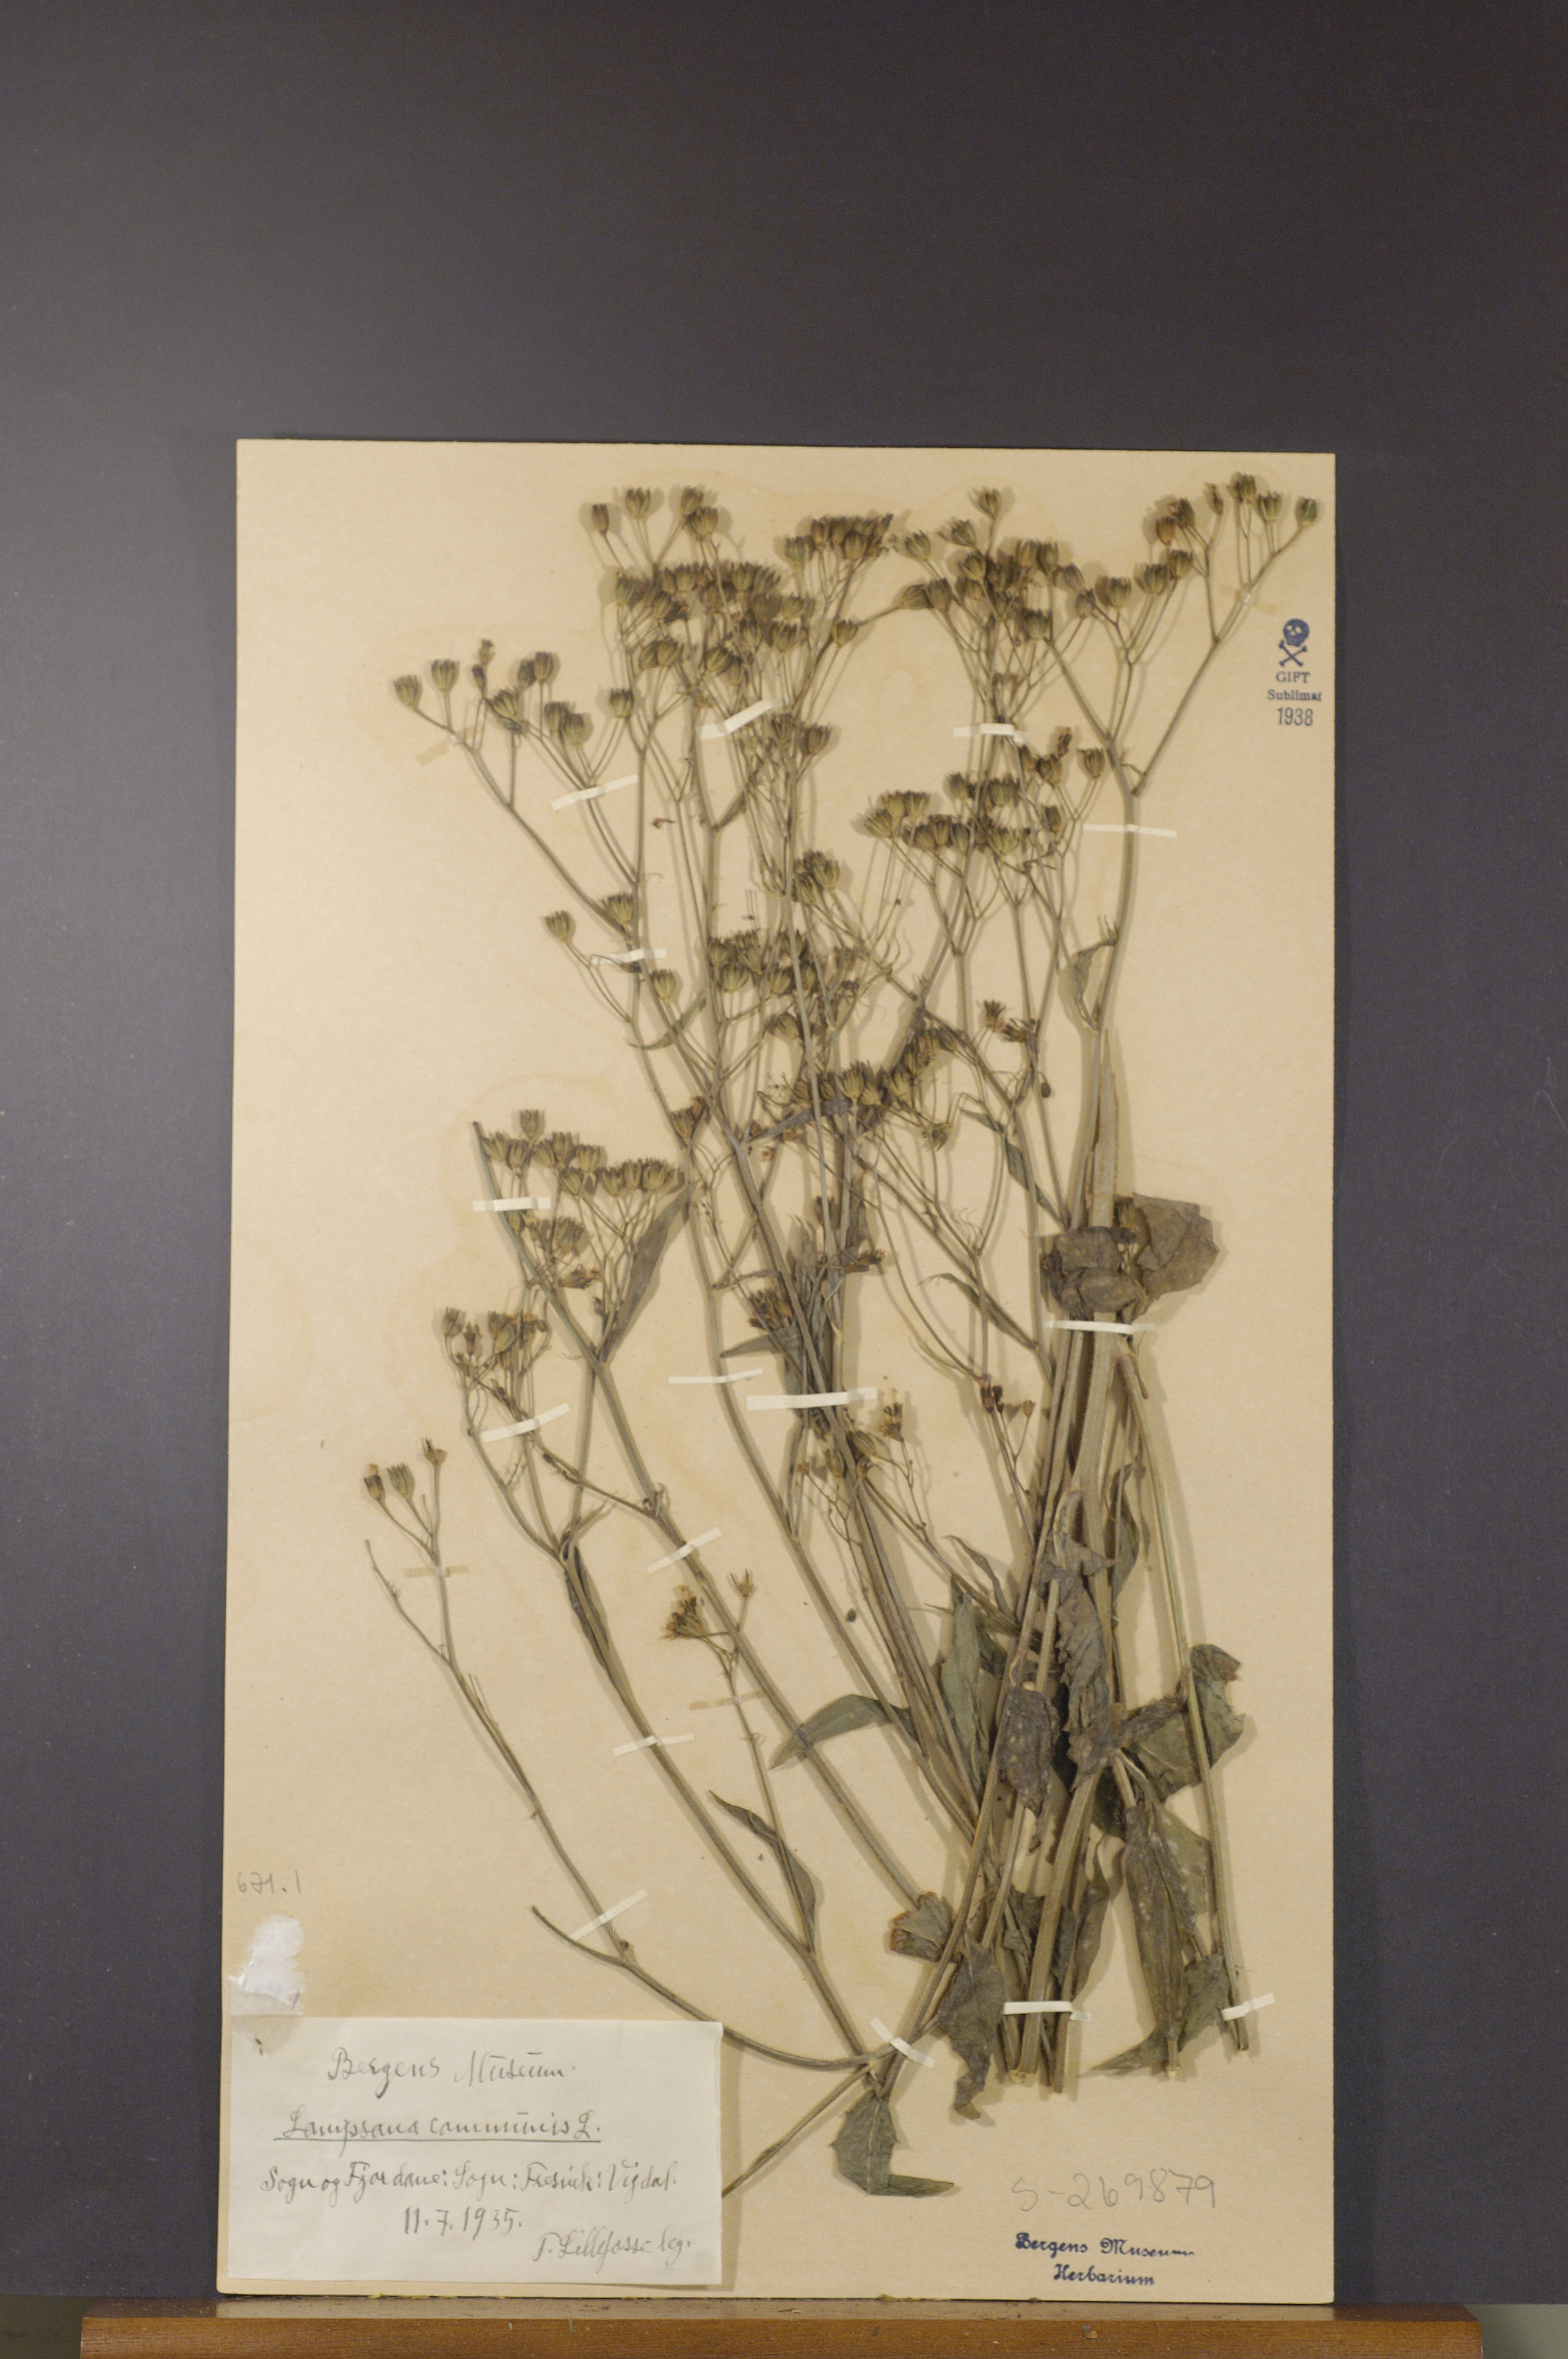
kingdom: Plantae
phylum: Tracheophyta
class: Magnoliopsida
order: Asterales
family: Asteraceae
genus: Lapsana
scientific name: Lapsana communis
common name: Nipplewort
